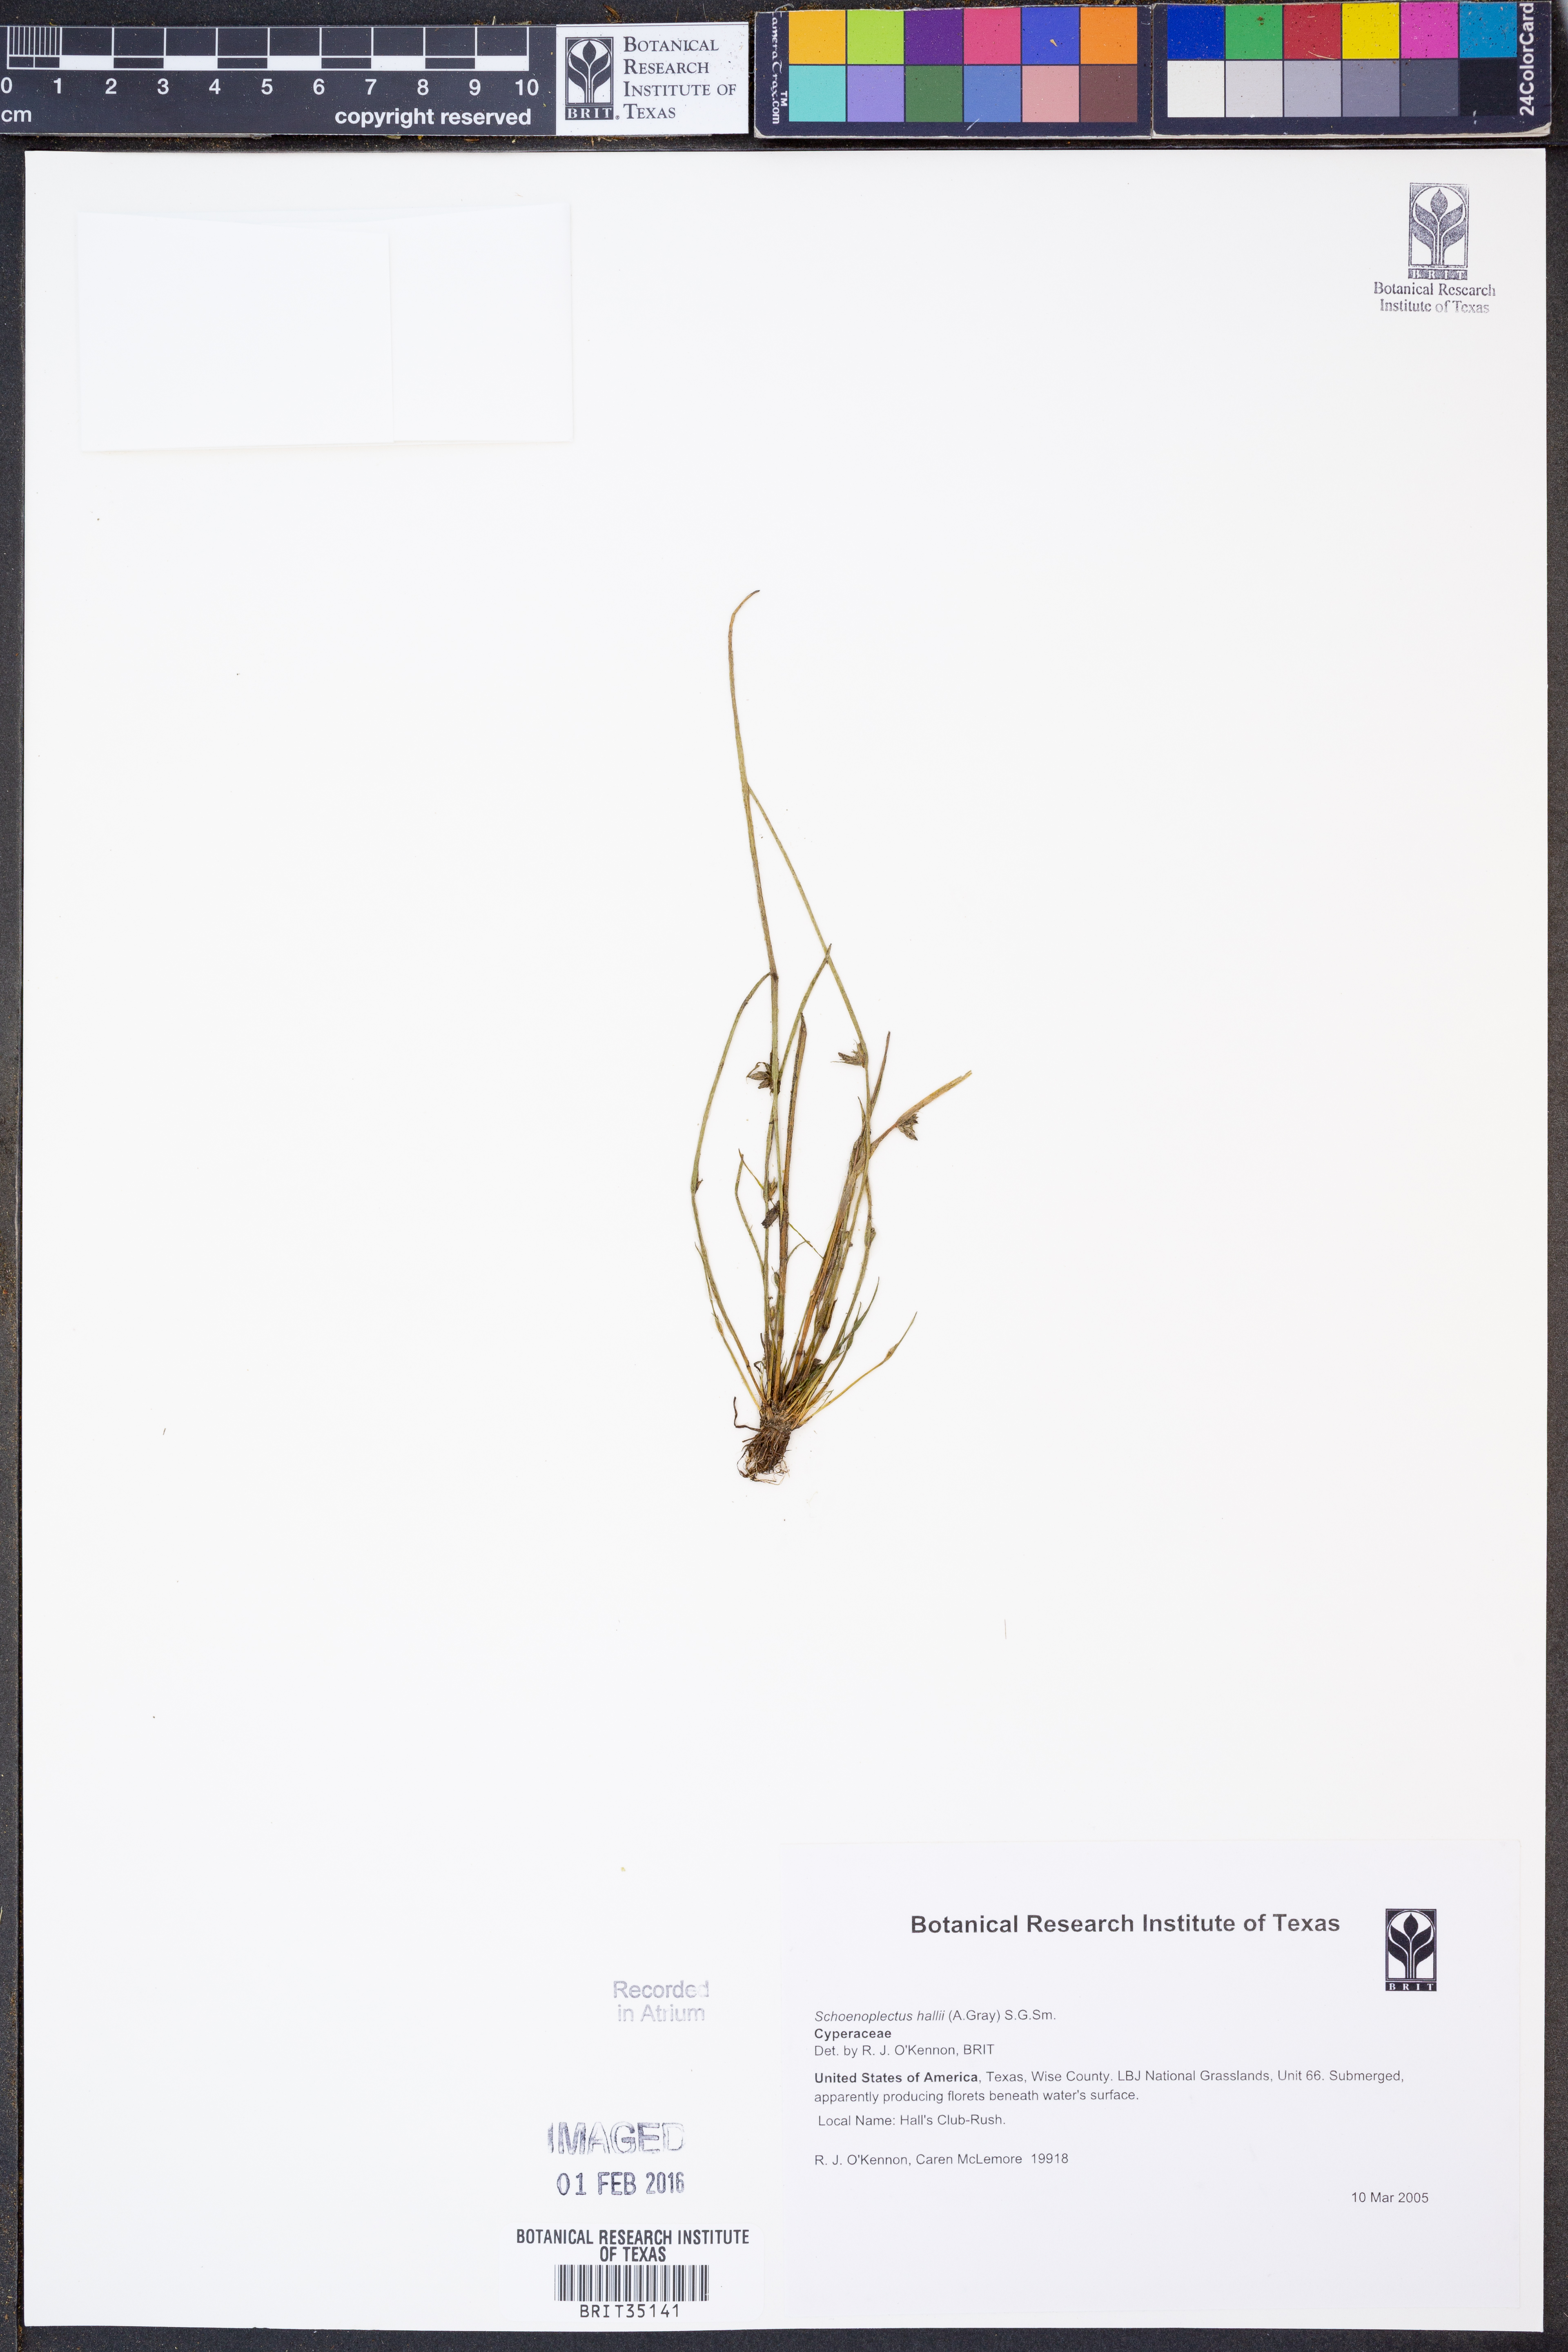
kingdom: Plantae
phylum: Tracheophyta
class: Liliopsida
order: Poales
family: Cyperaceae
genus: Schoenoplectiella
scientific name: Schoenoplectiella hallii
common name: Hall's bullrush
